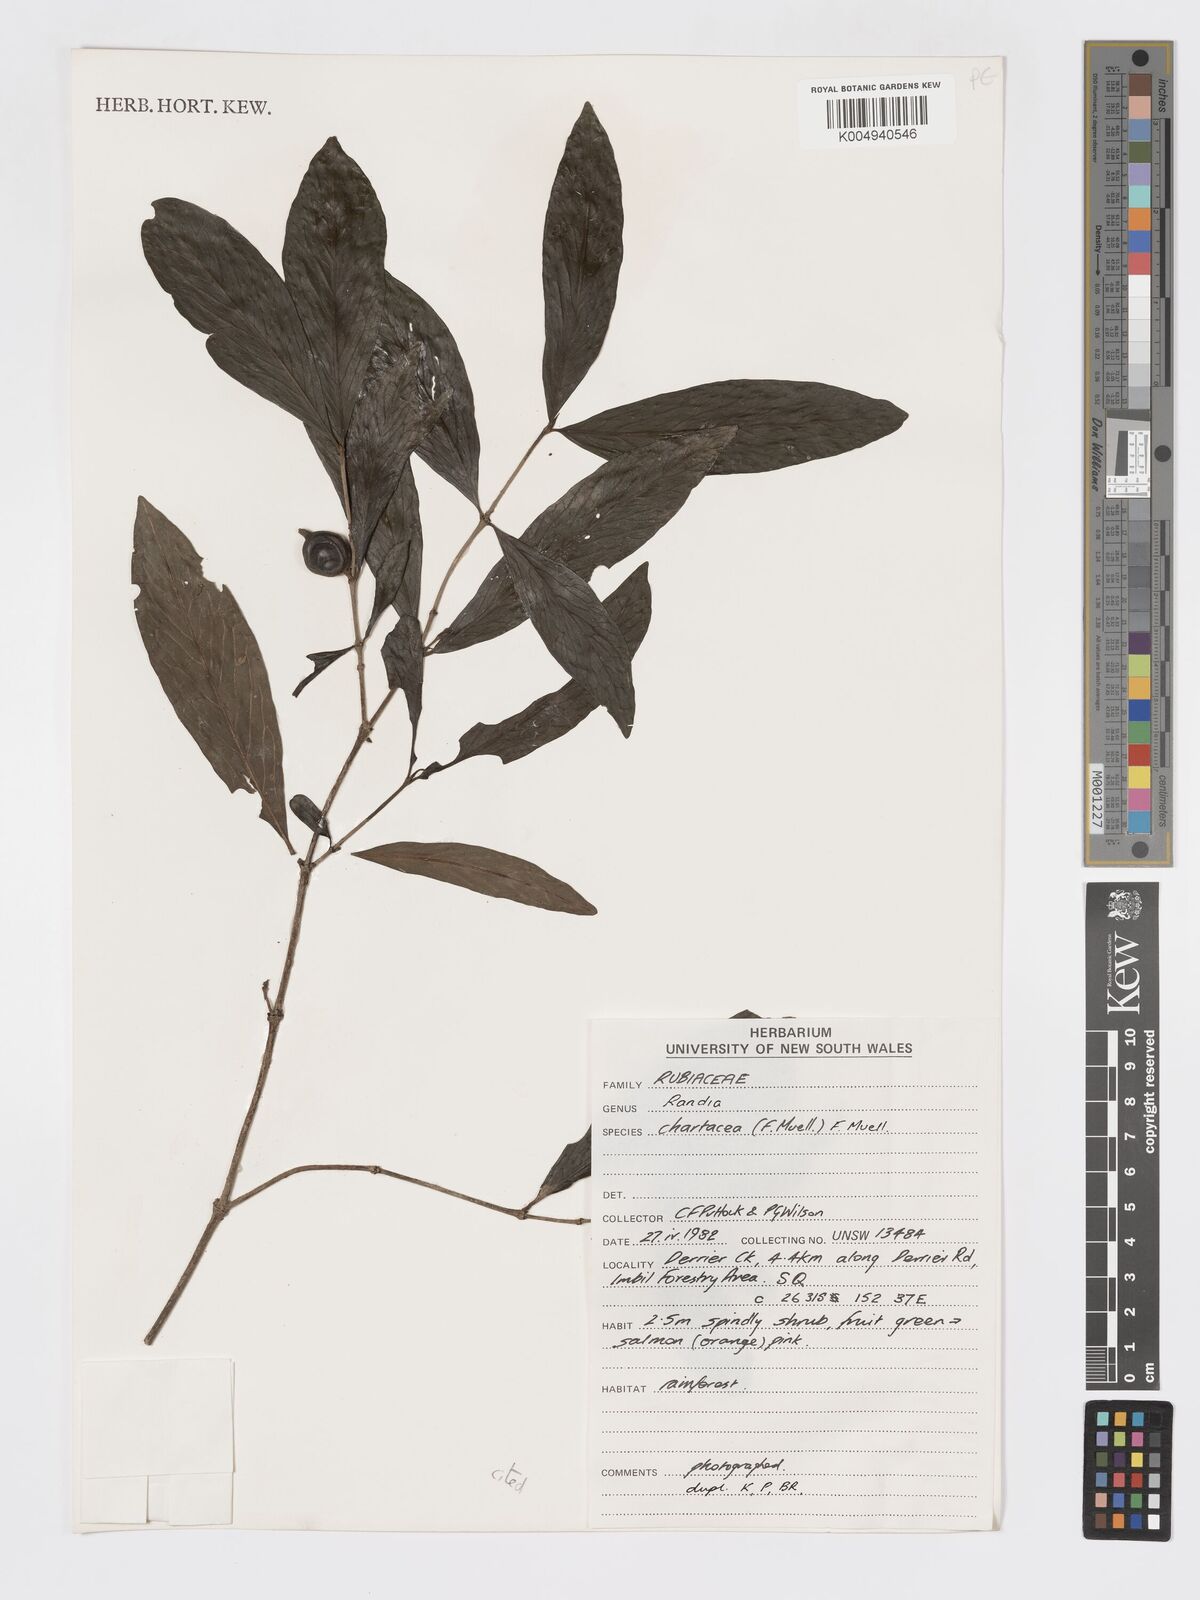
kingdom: Plantae
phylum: Tracheophyta
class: Magnoliopsida
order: Gentianales
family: Rubiaceae
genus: Atractocarpus
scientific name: Atractocarpus chartaceus
